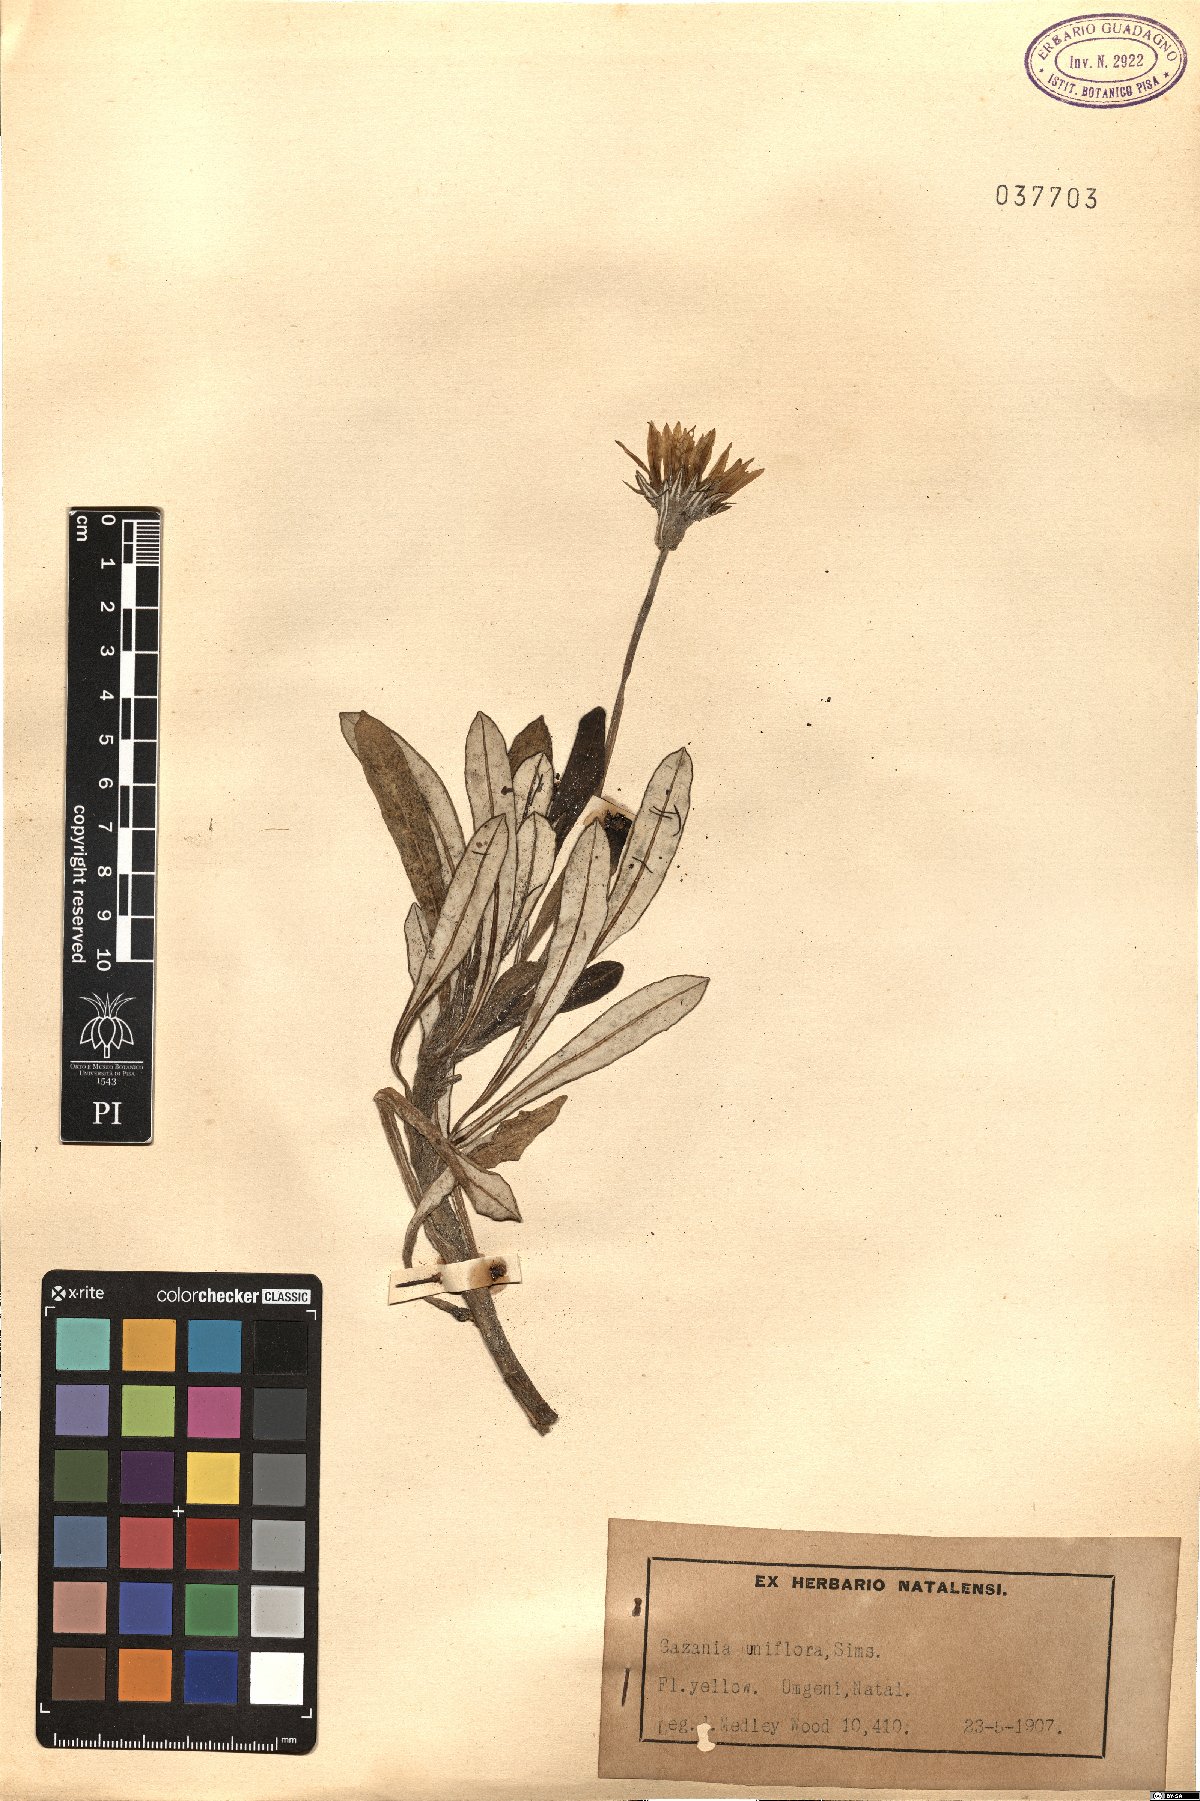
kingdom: Plantae
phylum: Tracheophyta
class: Magnoliopsida
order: Asterales
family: Asteraceae
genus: Gazania
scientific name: Gazania rigens
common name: Treasureflower
